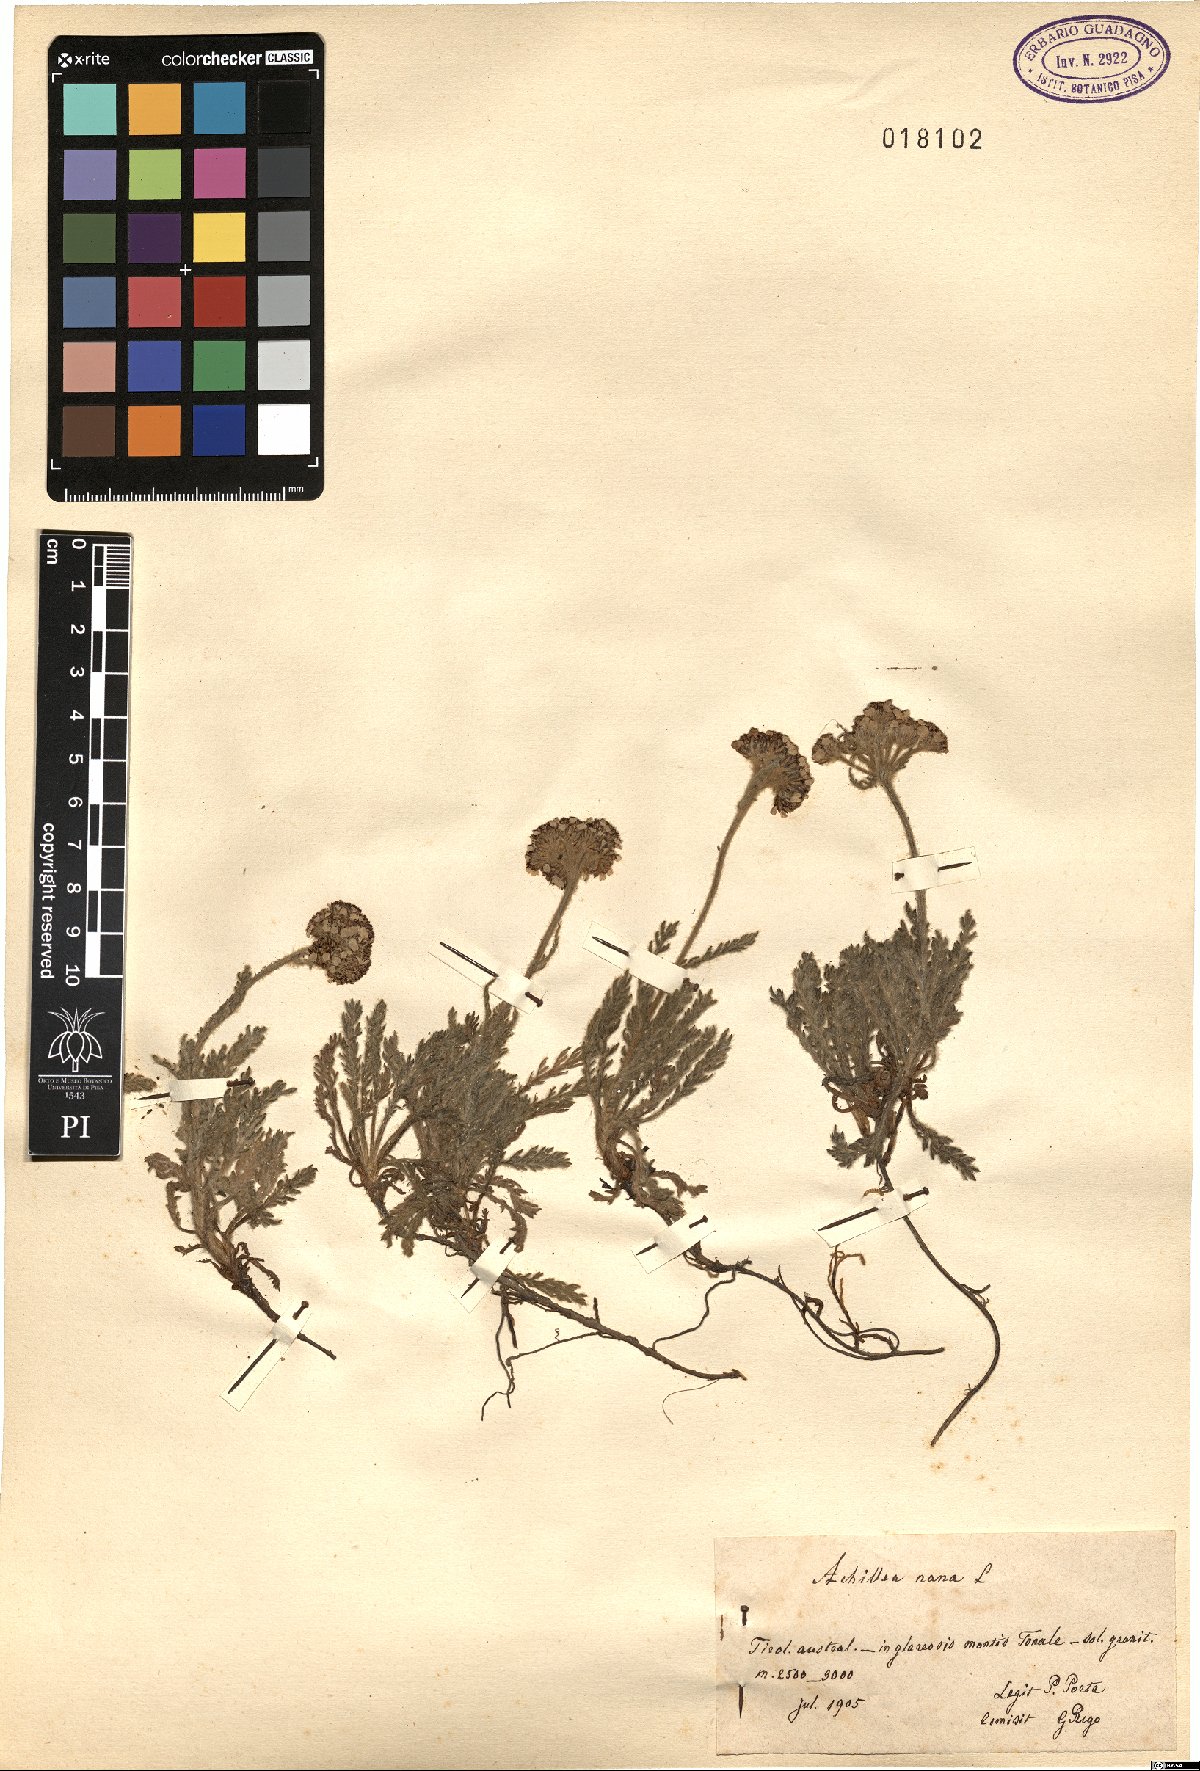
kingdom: Plantae
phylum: Tracheophyta
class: Magnoliopsida
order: Asterales
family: Asteraceae
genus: Achillea
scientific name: Achillea nana
